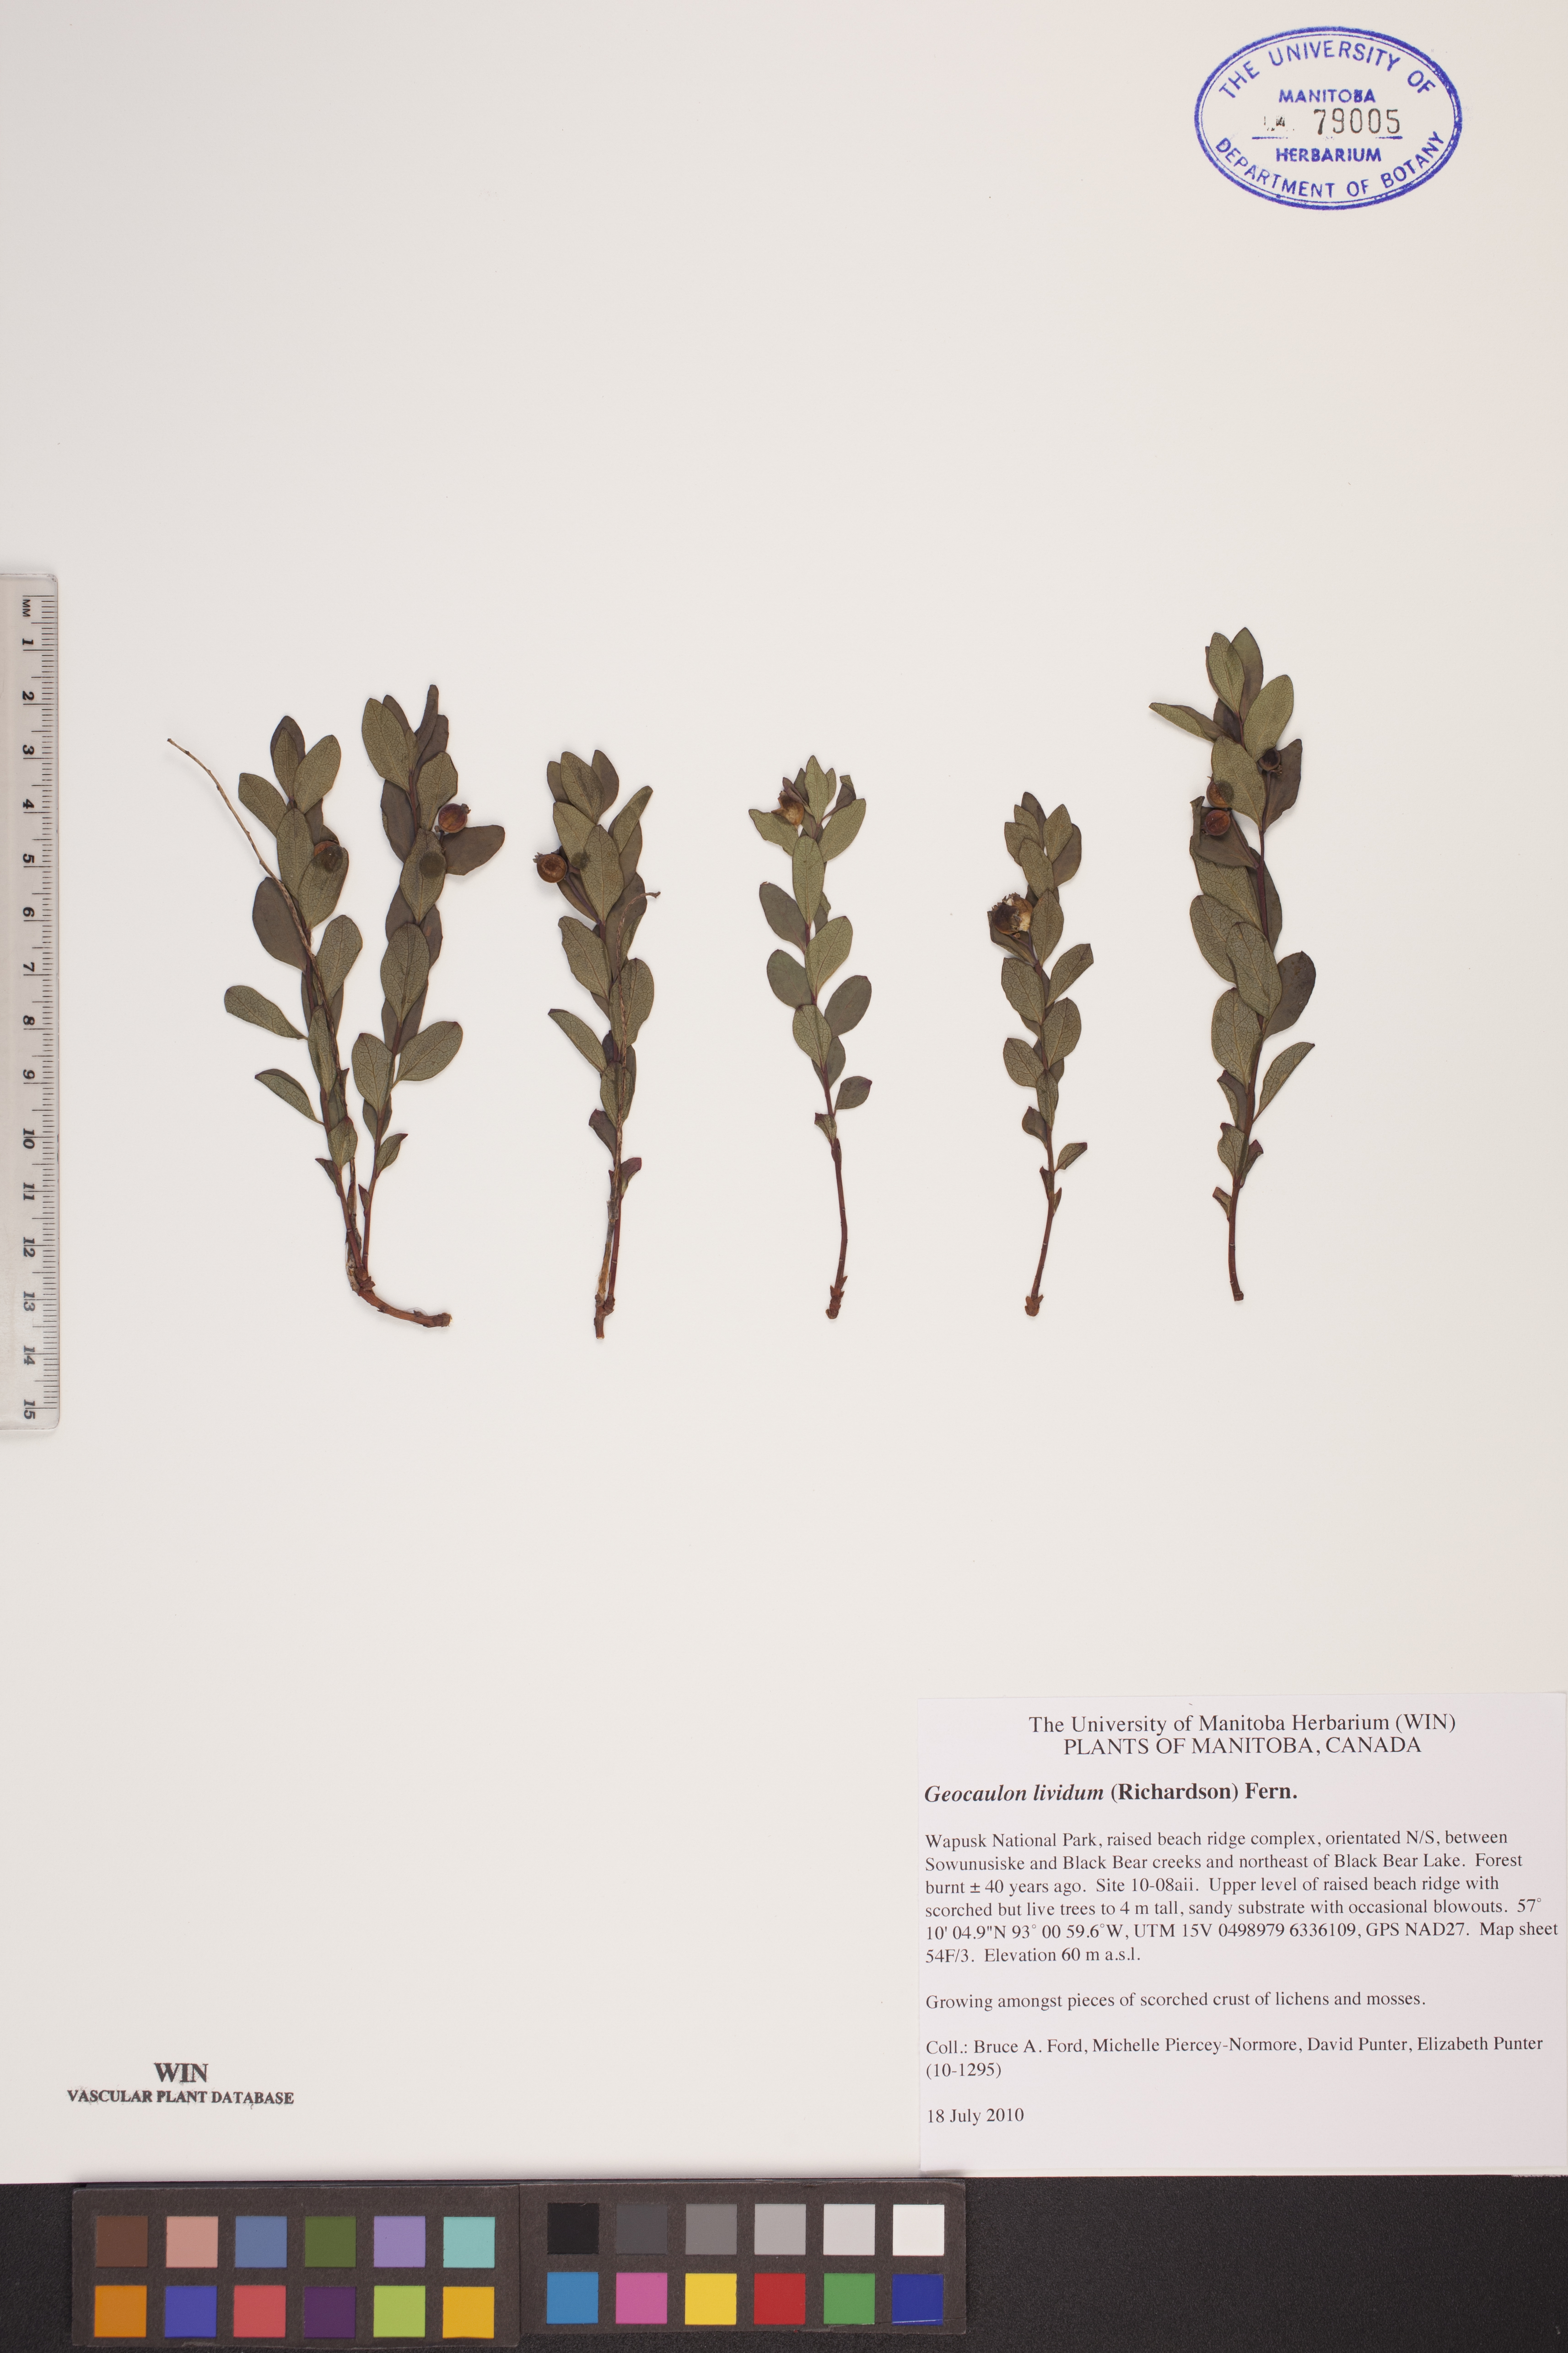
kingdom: Plantae
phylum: Tracheophyta
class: Magnoliopsida
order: Santalales
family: Comandraceae
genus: Geocaulon
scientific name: Geocaulon lividum
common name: Earthberry
